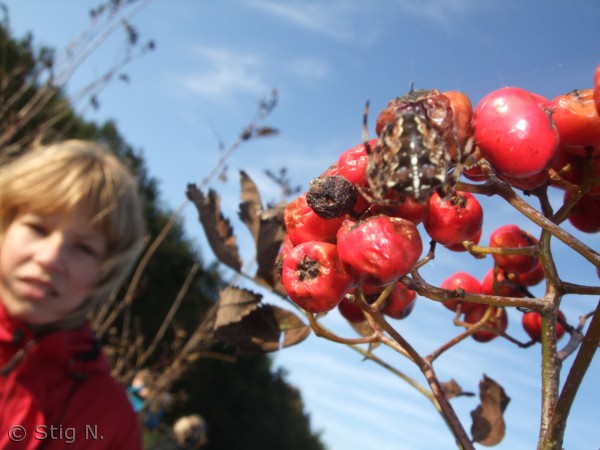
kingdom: Animalia
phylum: Arthropoda
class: Arachnida
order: Araneae
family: Araneidae
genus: Araneus
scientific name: Araneus diadematus
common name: Korsedderkop
